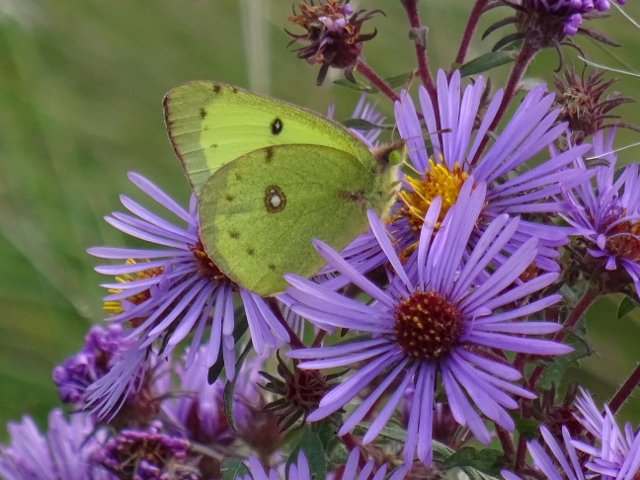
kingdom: Animalia
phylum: Arthropoda
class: Insecta
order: Lepidoptera
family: Pieridae
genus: Colias
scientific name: Colias philodice
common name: Clouded Sulphur
